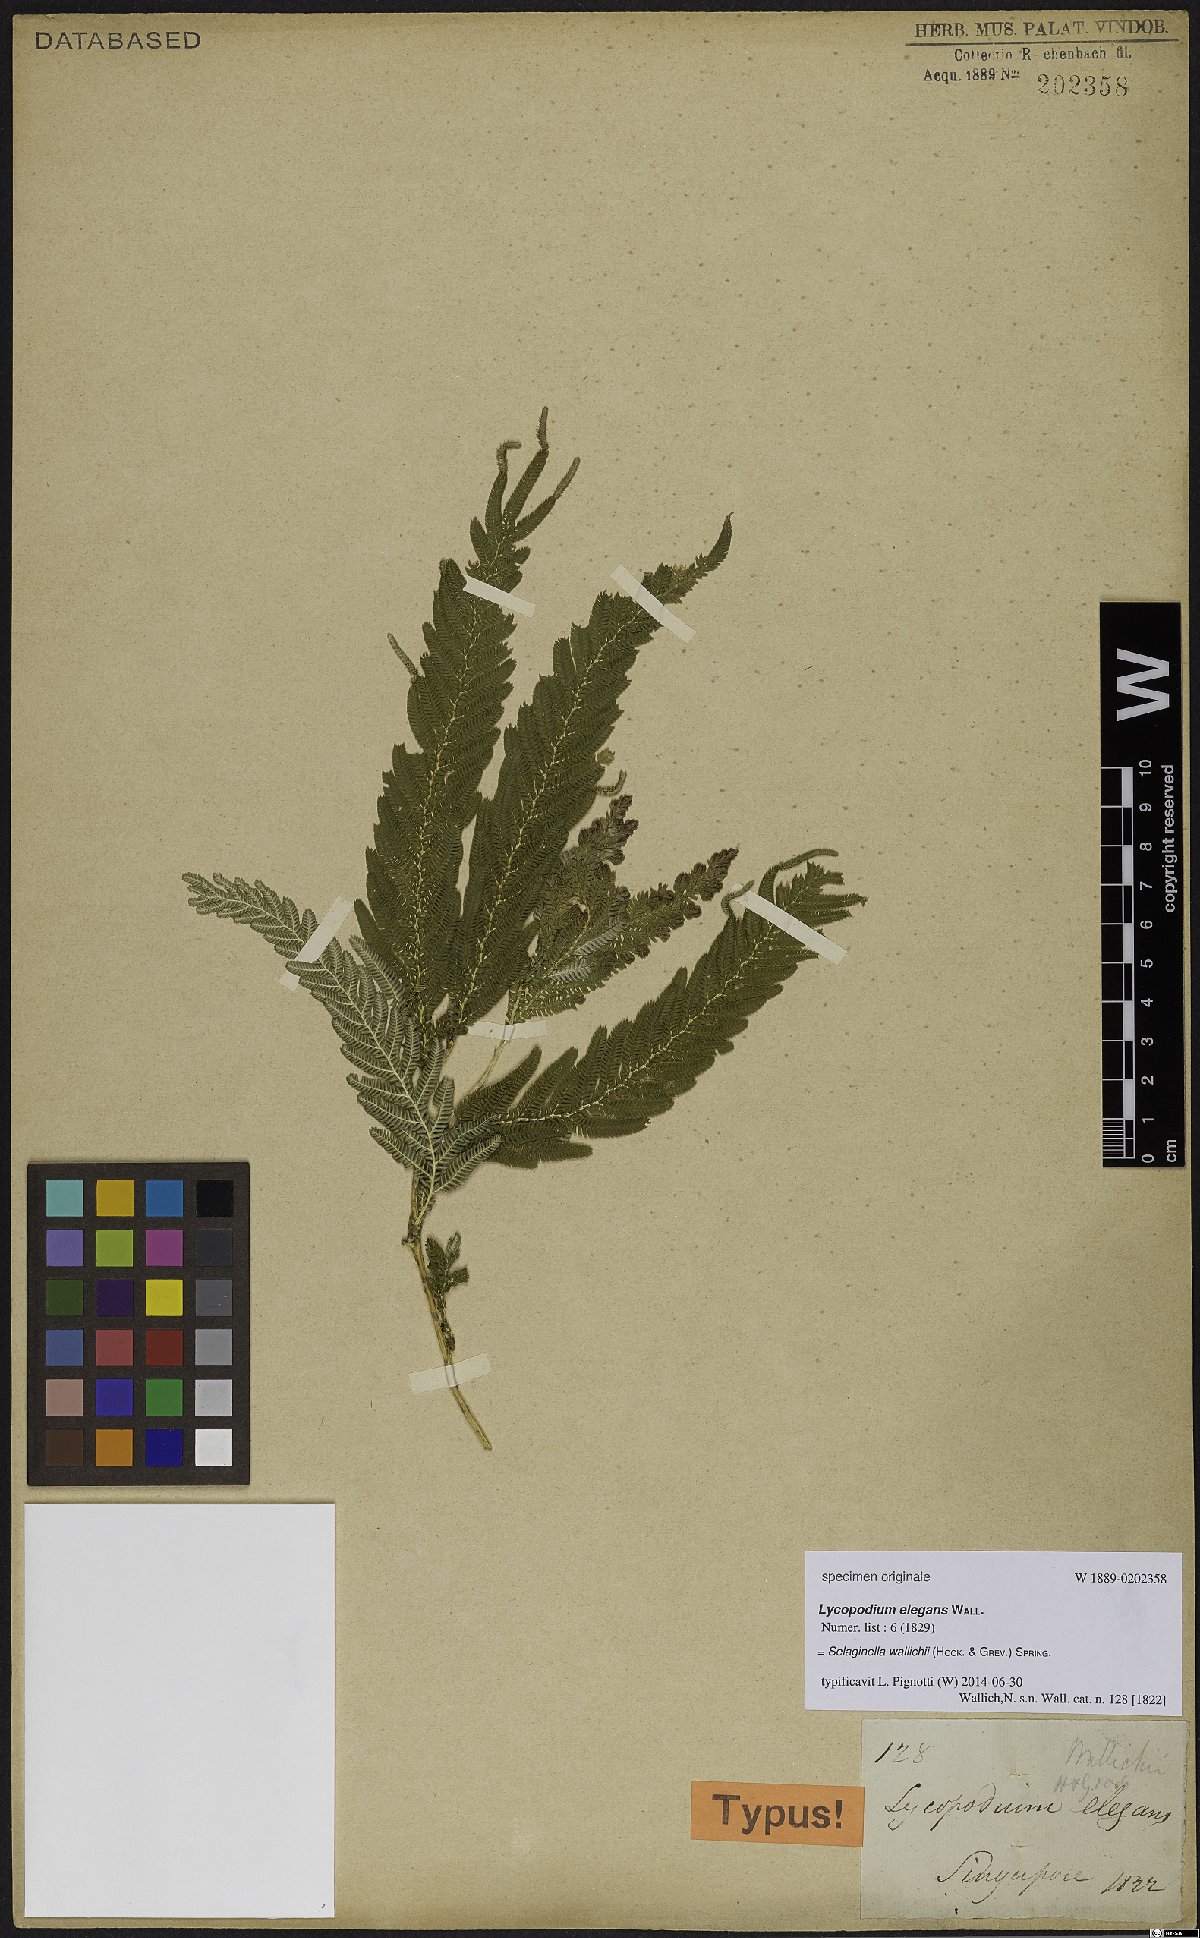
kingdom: Plantae
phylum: Tracheophyta
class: Lycopodiopsida
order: Selaginellales
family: Selaginellaceae
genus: Selaginella
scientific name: Selaginella wallichii
